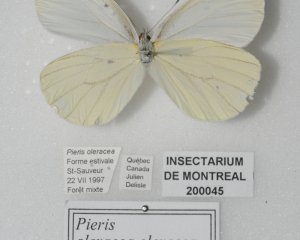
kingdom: Animalia
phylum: Arthropoda
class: Insecta
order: Lepidoptera
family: Pieridae
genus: Pieris
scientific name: Pieris oleracea
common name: Mustard White
